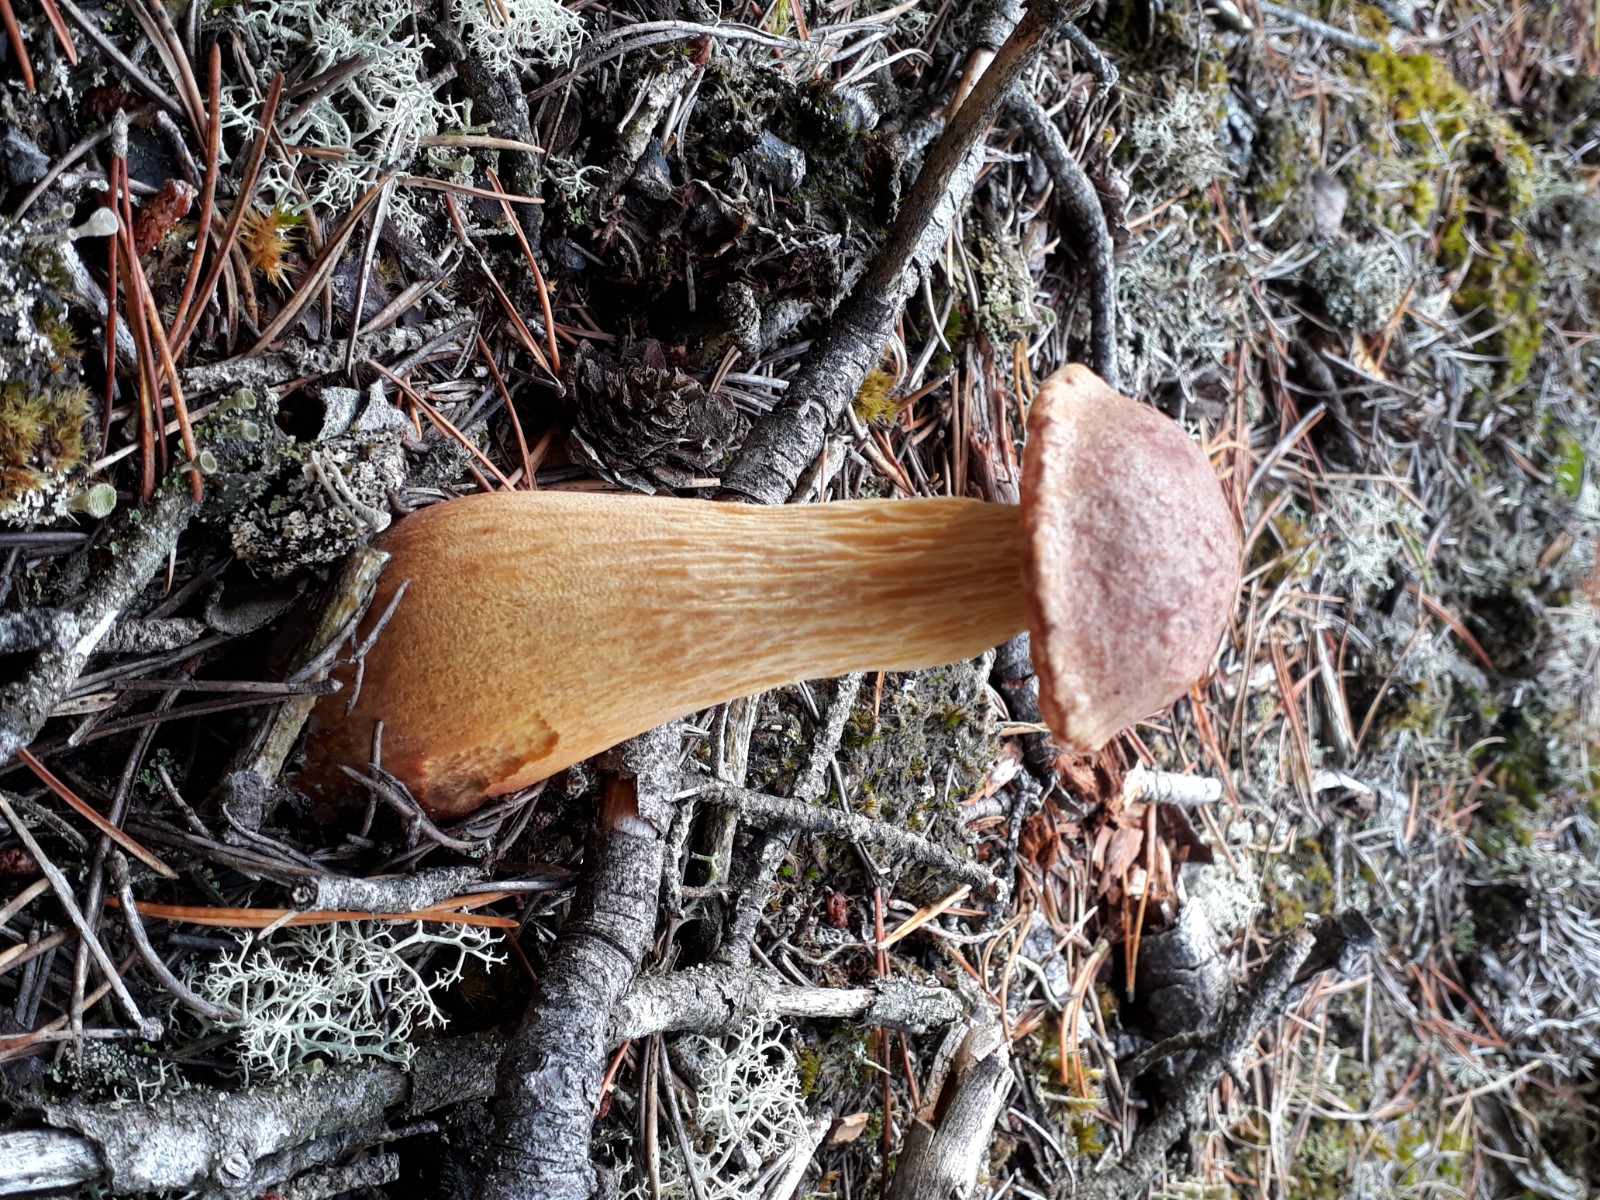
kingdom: Fungi
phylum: Basidiomycota
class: Agaricomycetes
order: Boletales
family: Boletaceae
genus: Aureoboletus
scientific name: Aureoboletus projectellus
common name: ribbestokket rørhat
